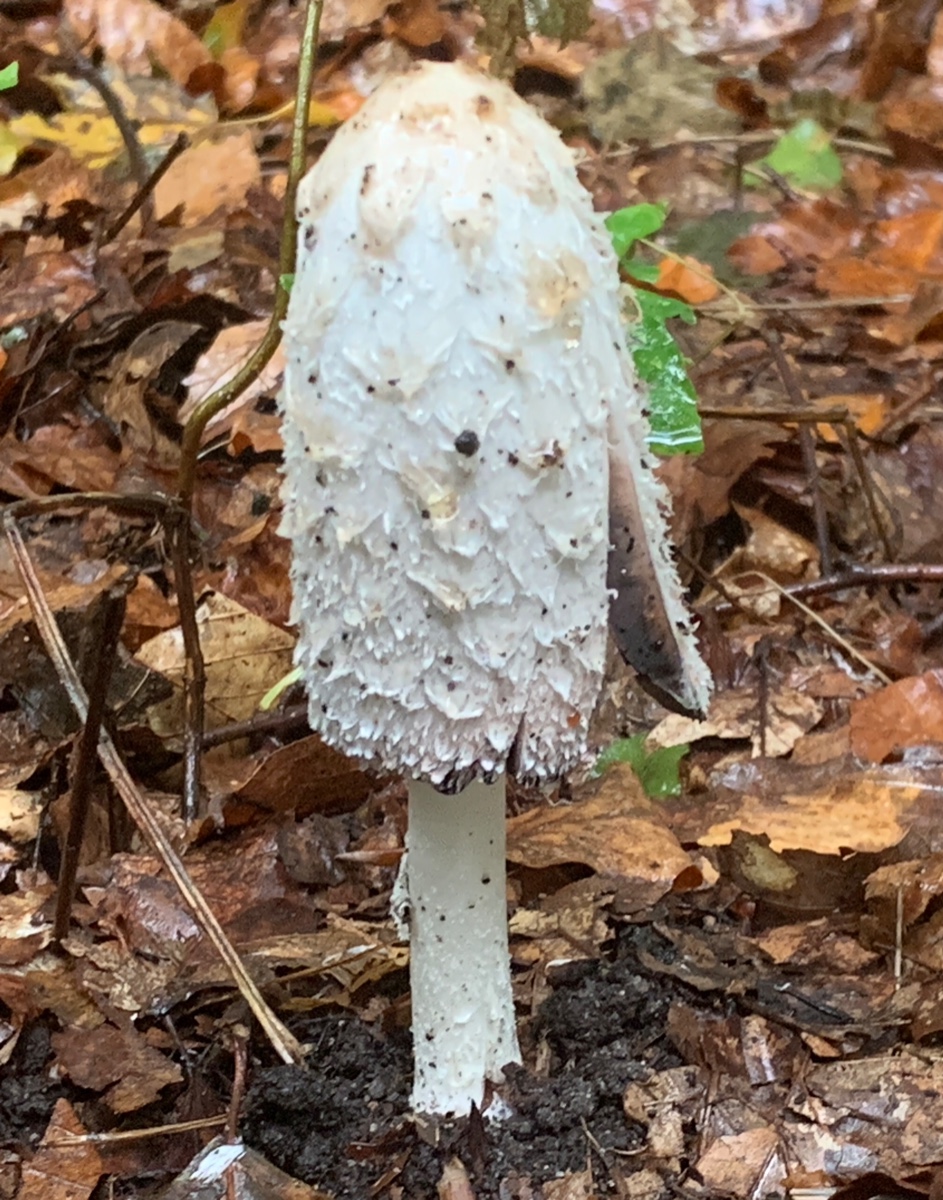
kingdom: Fungi
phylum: Basidiomycota
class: Agaricomycetes
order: Agaricales
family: Agaricaceae
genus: Coprinus
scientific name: Coprinus comatus
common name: stor parykhat
